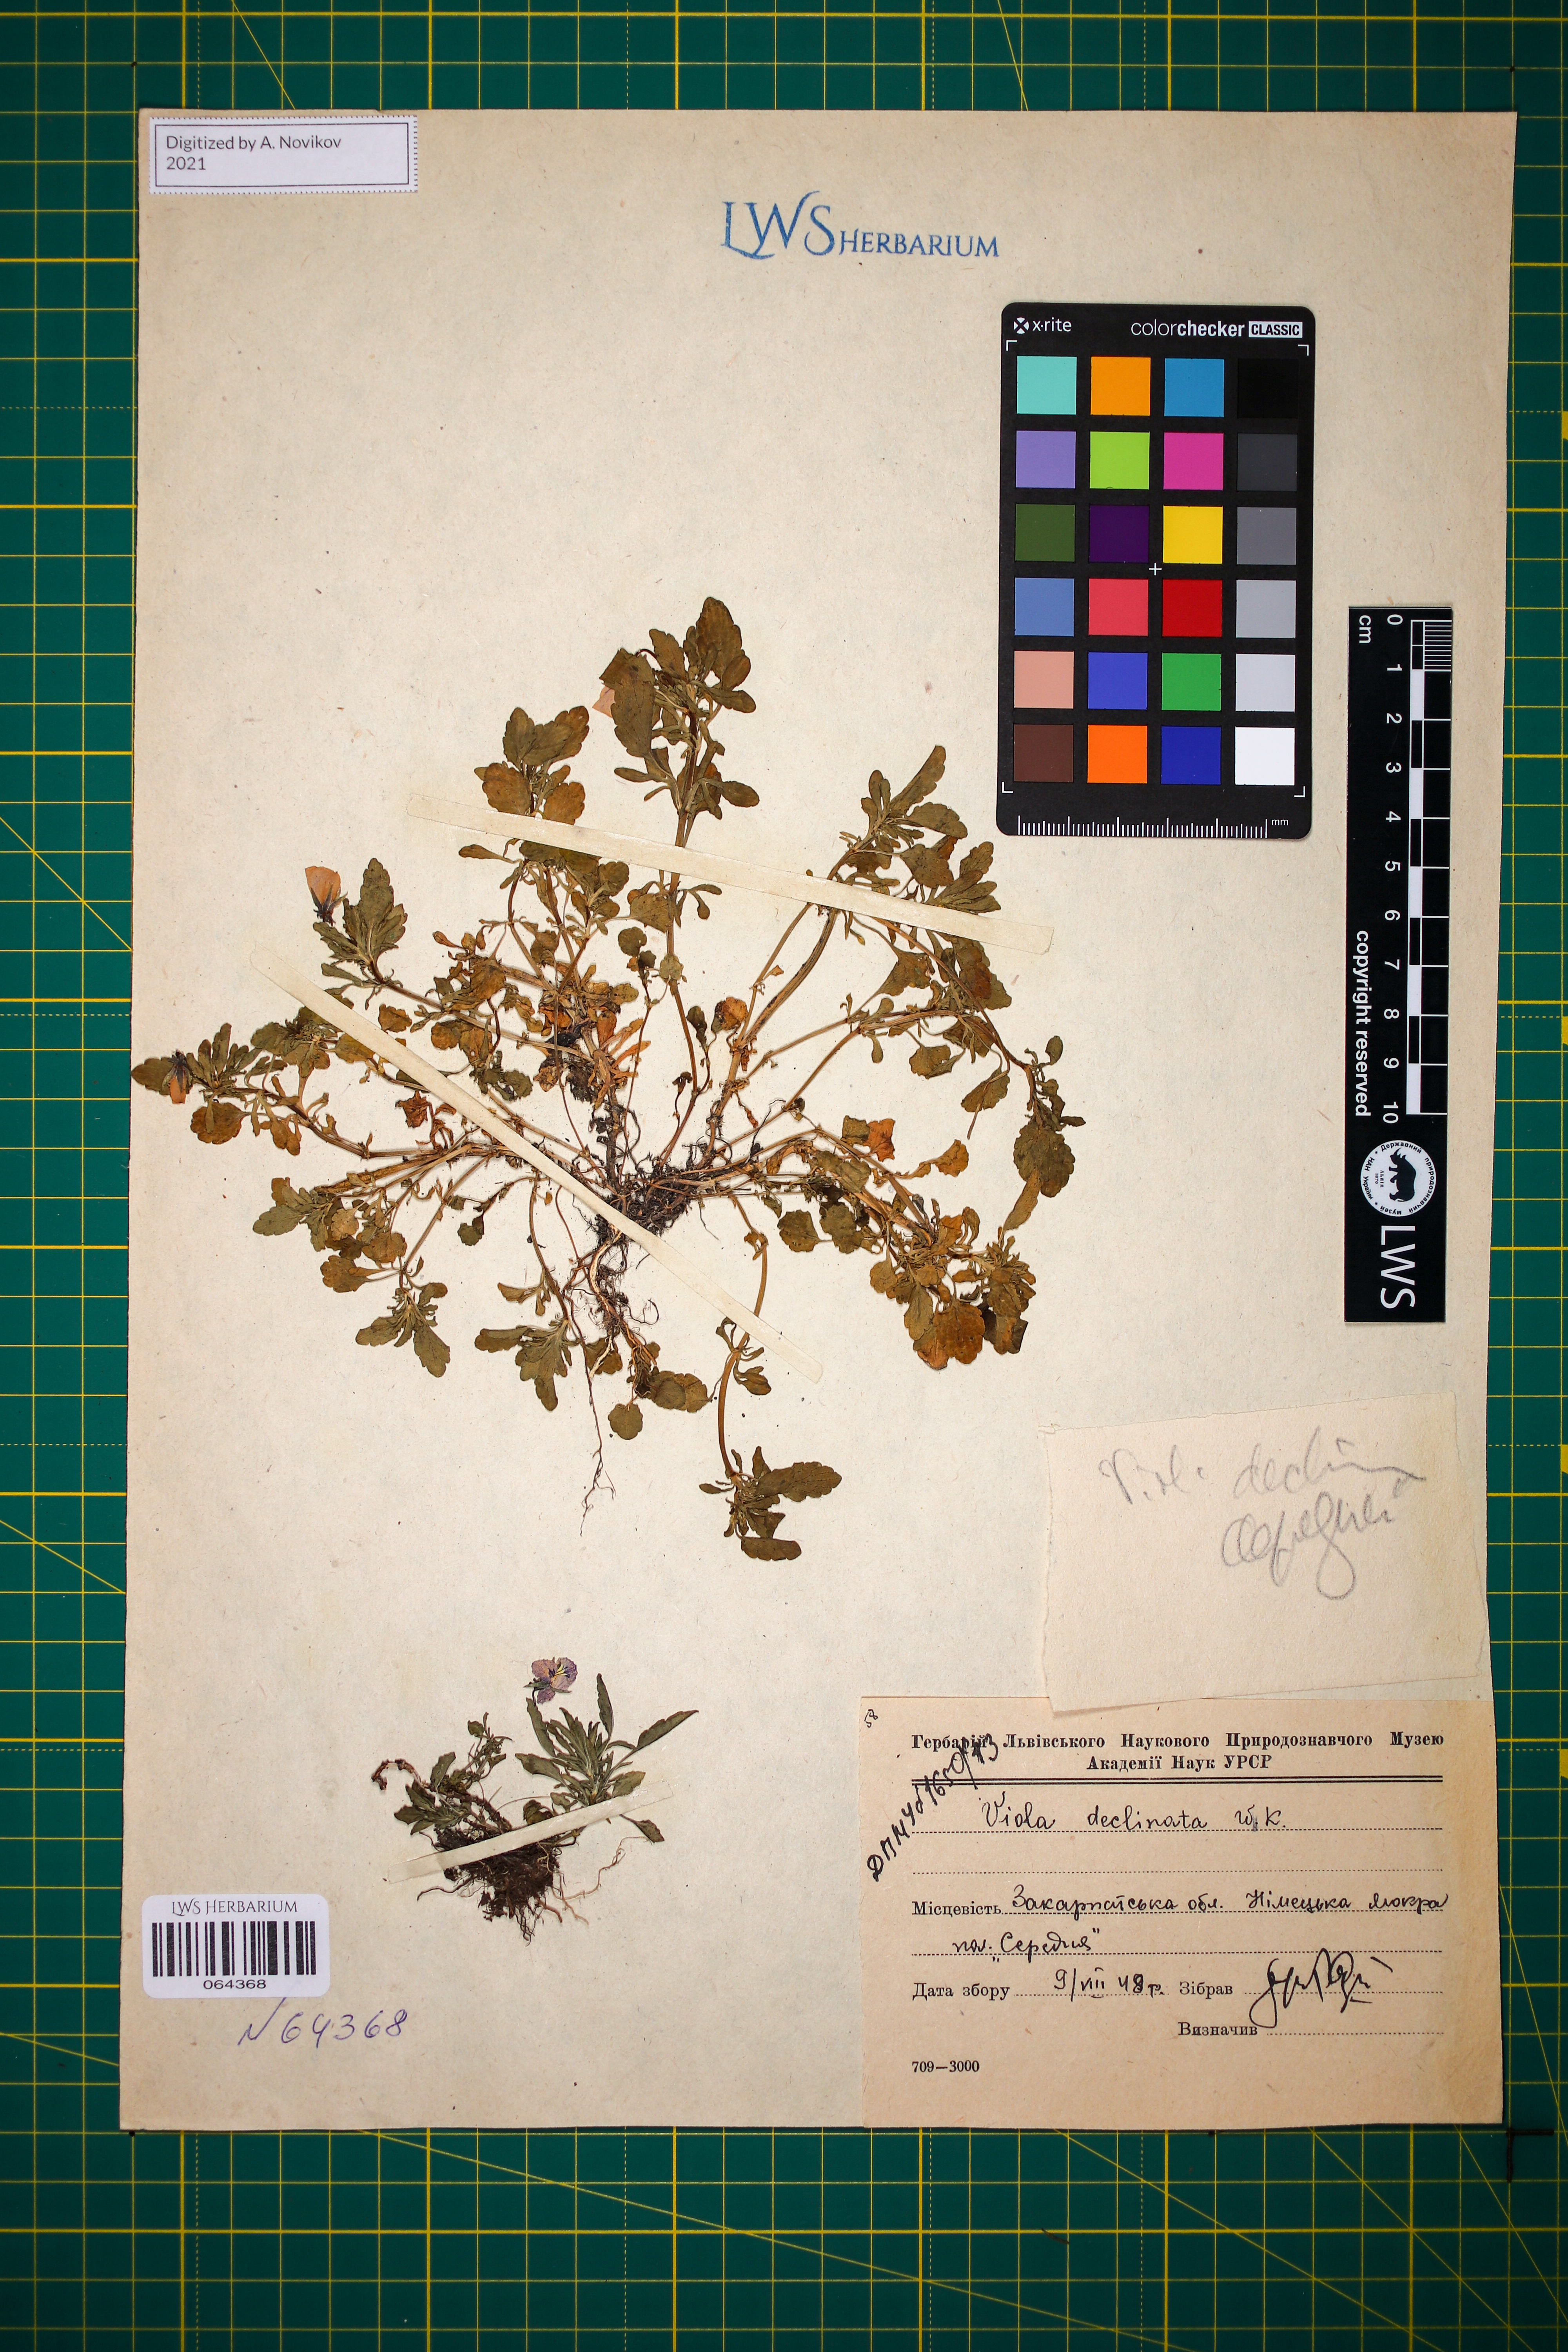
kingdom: Plantae
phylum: Tracheophyta
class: Magnoliopsida
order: Malpighiales
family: Violaceae
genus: Viola
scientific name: Viola declinata
